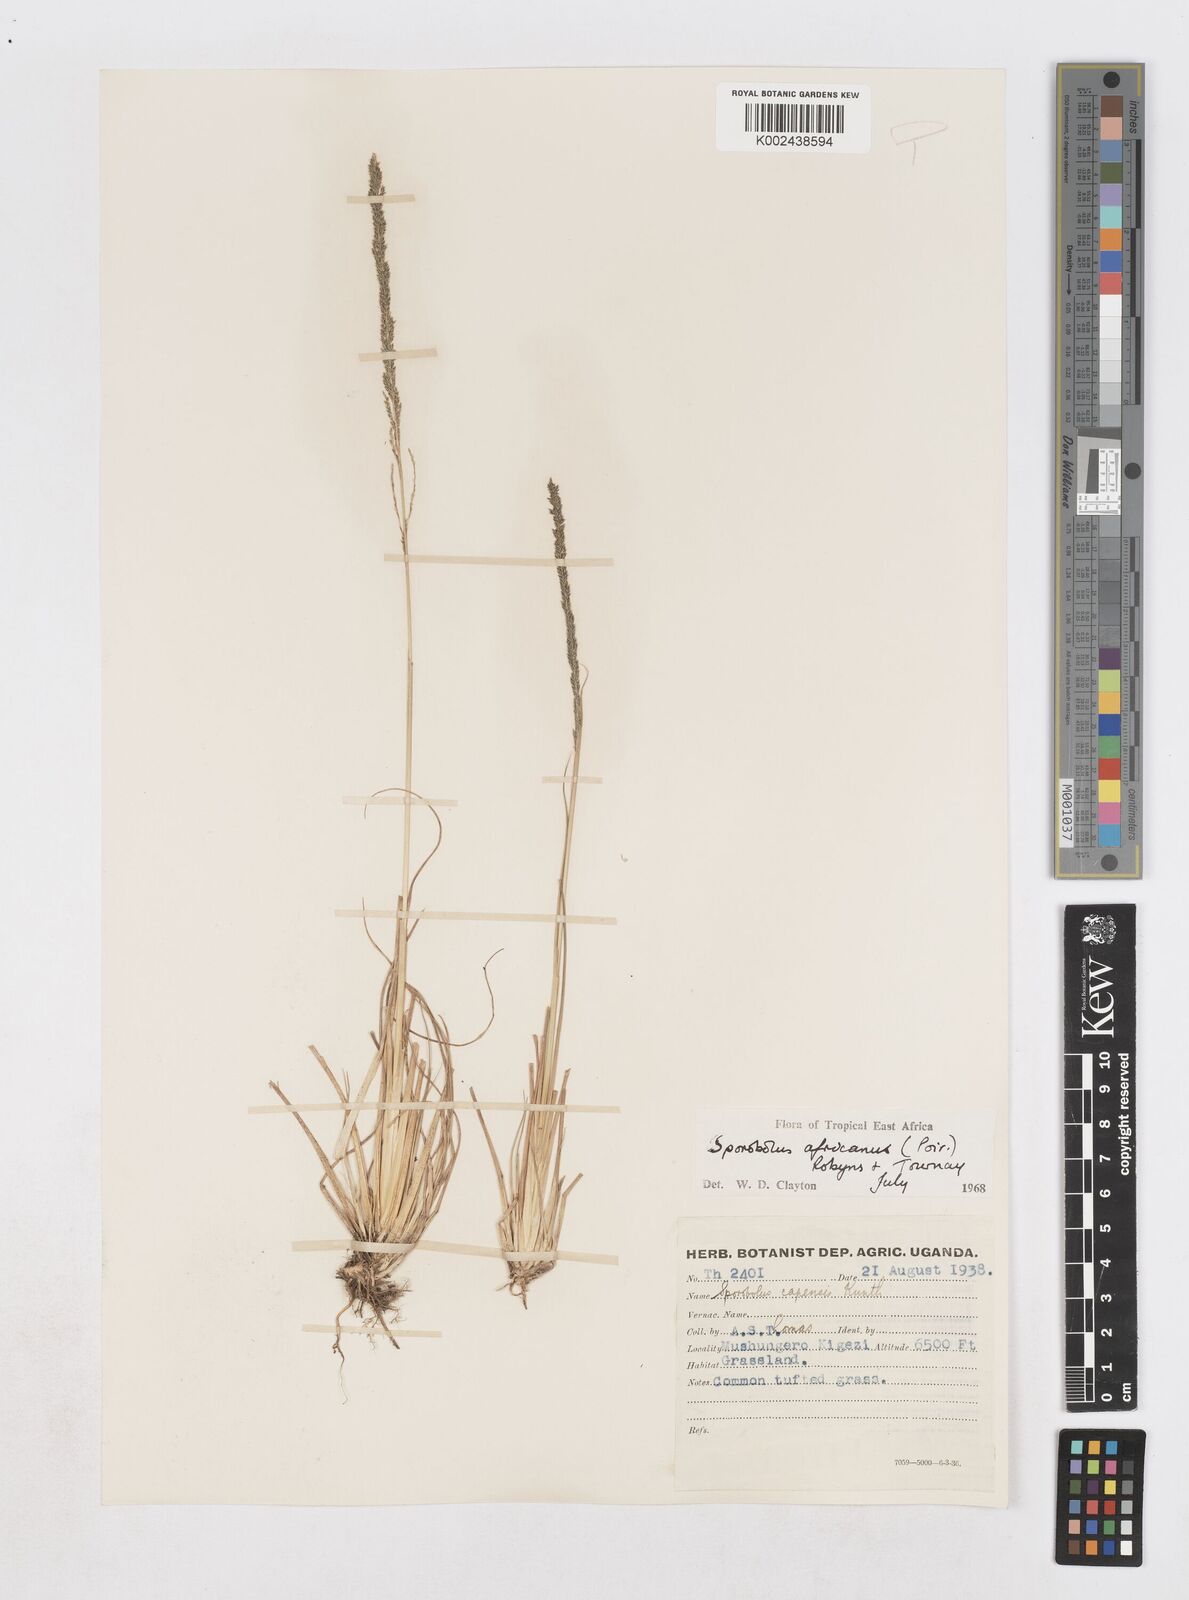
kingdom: Plantae
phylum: Tracheophyta
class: Liliopsida
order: Poales
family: Poaceae
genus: Sporobolus
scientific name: Sporobolus africanus
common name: African dropseed
